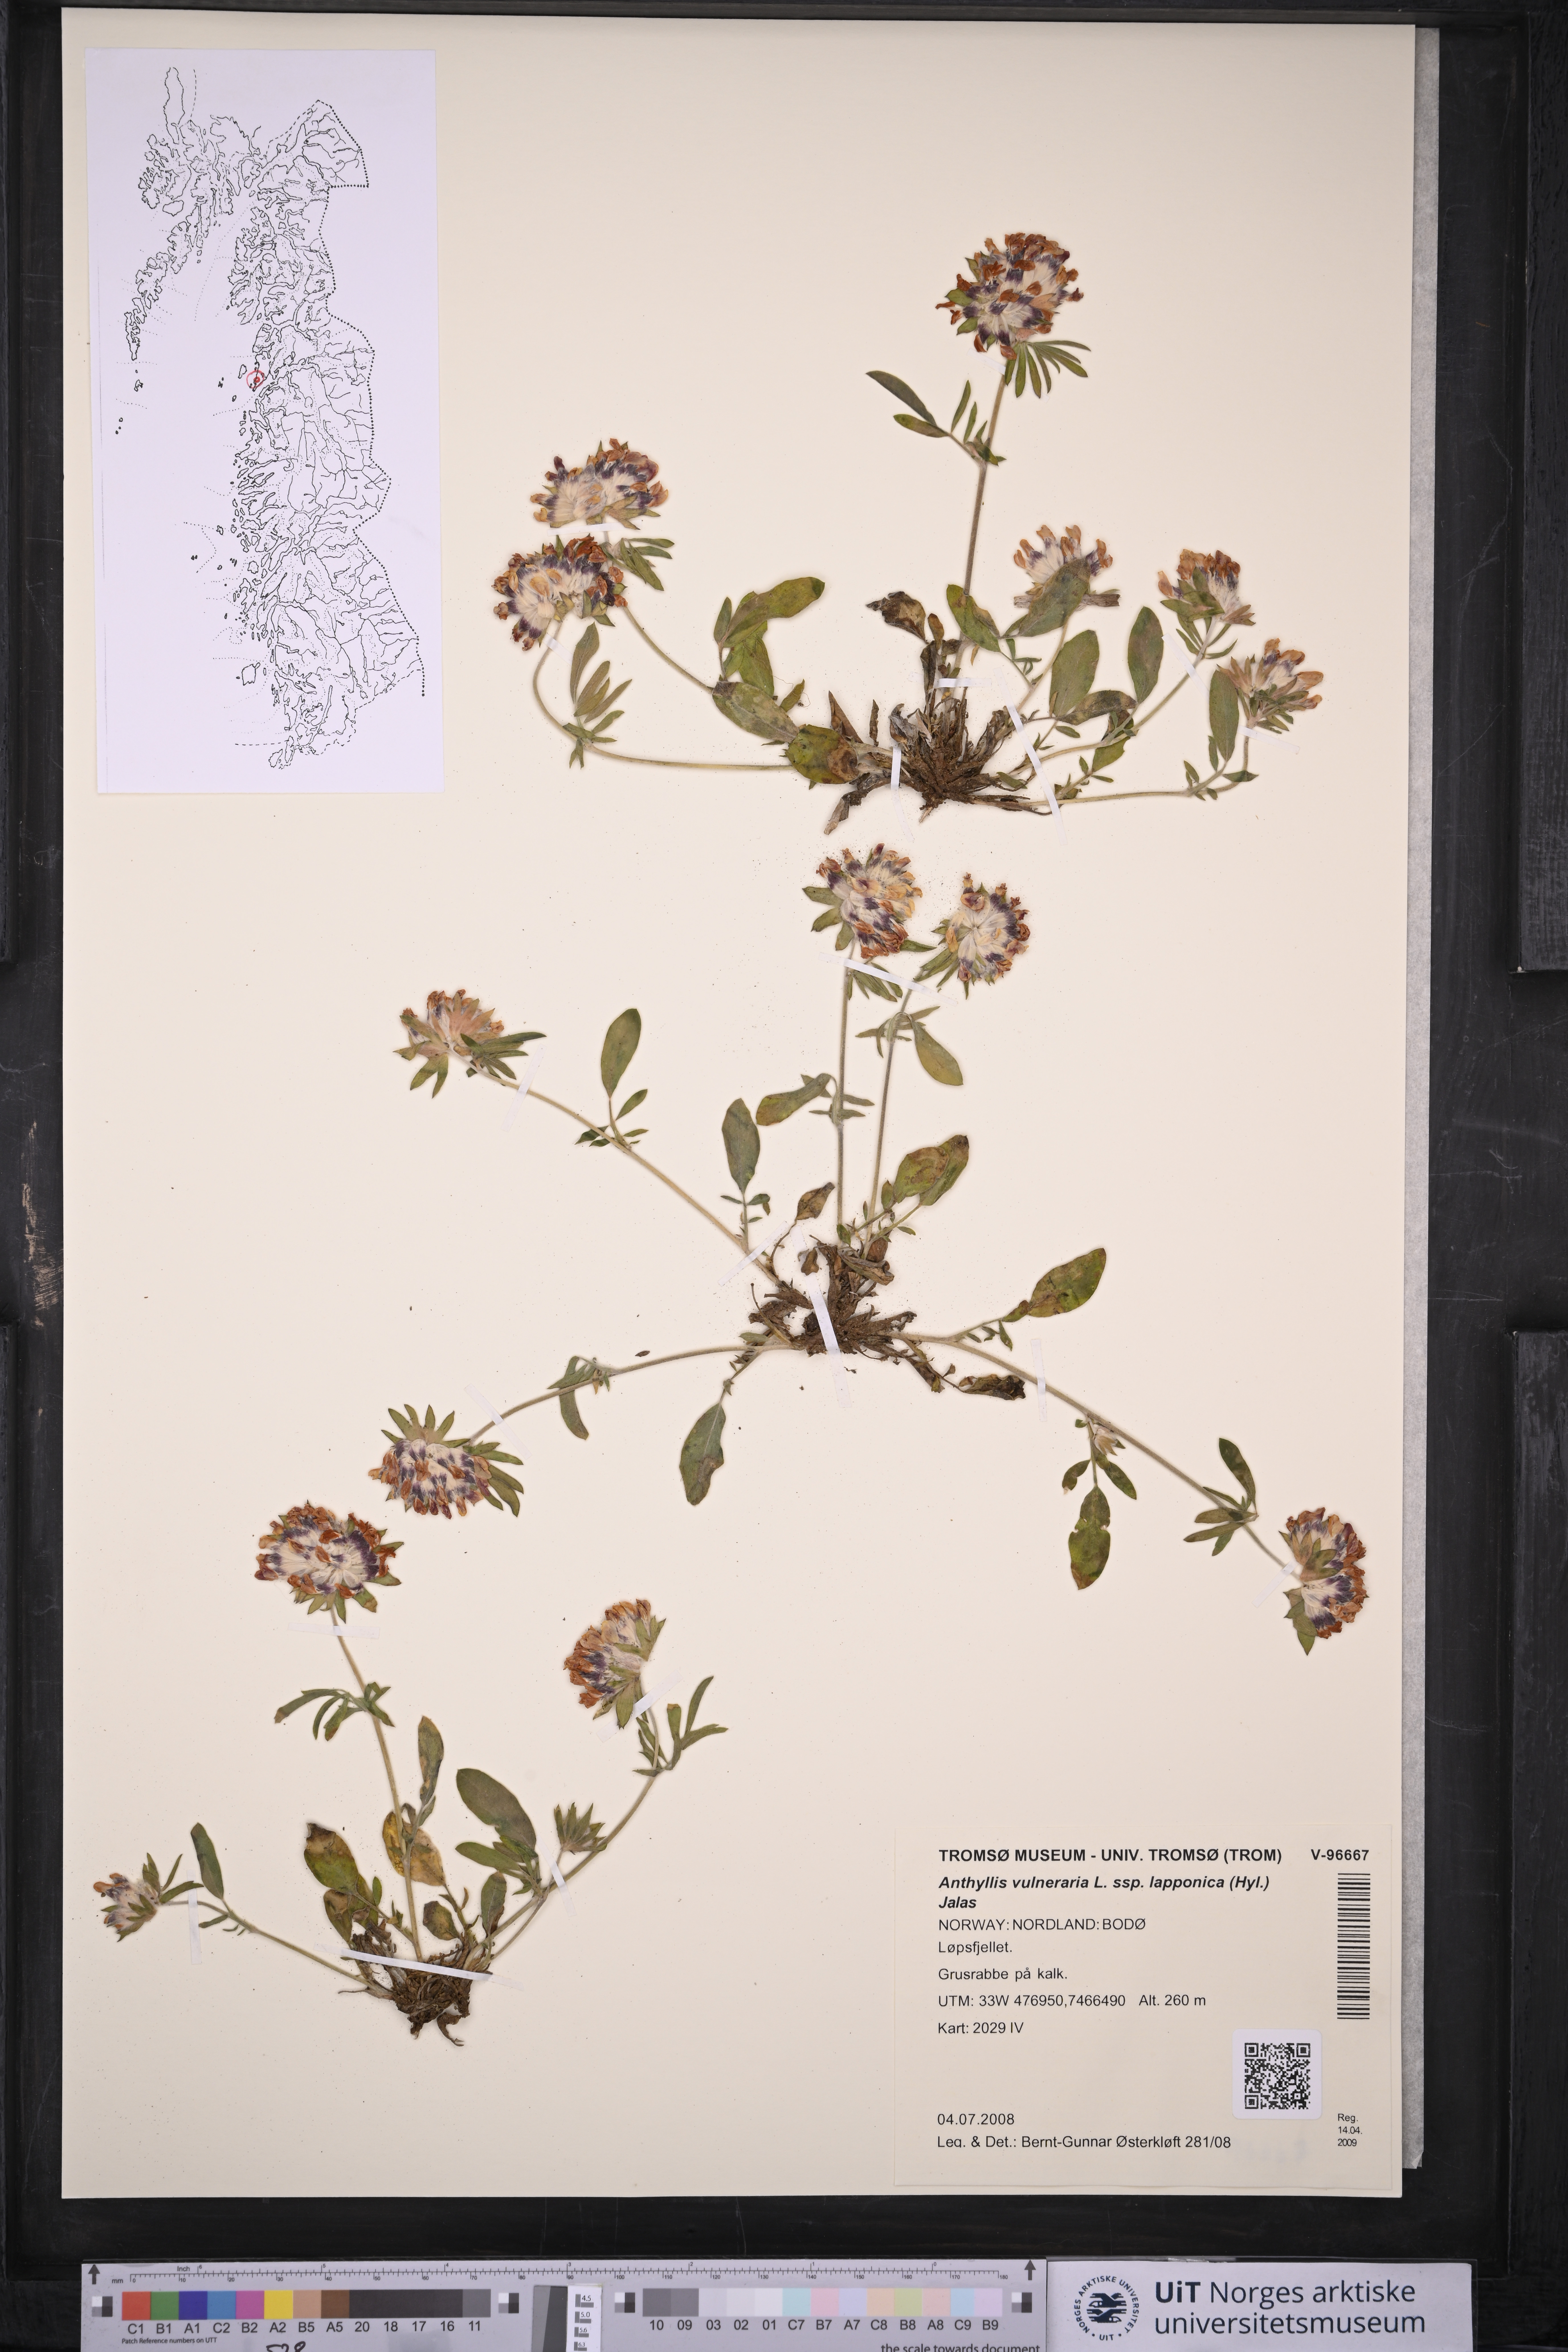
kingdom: Plantae
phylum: Tracheophyta
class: Magnoliopsida
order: Fabales
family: Fabaceae
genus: Anthyllis
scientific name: Anthyllis vulneraria
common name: Kidney vetch
